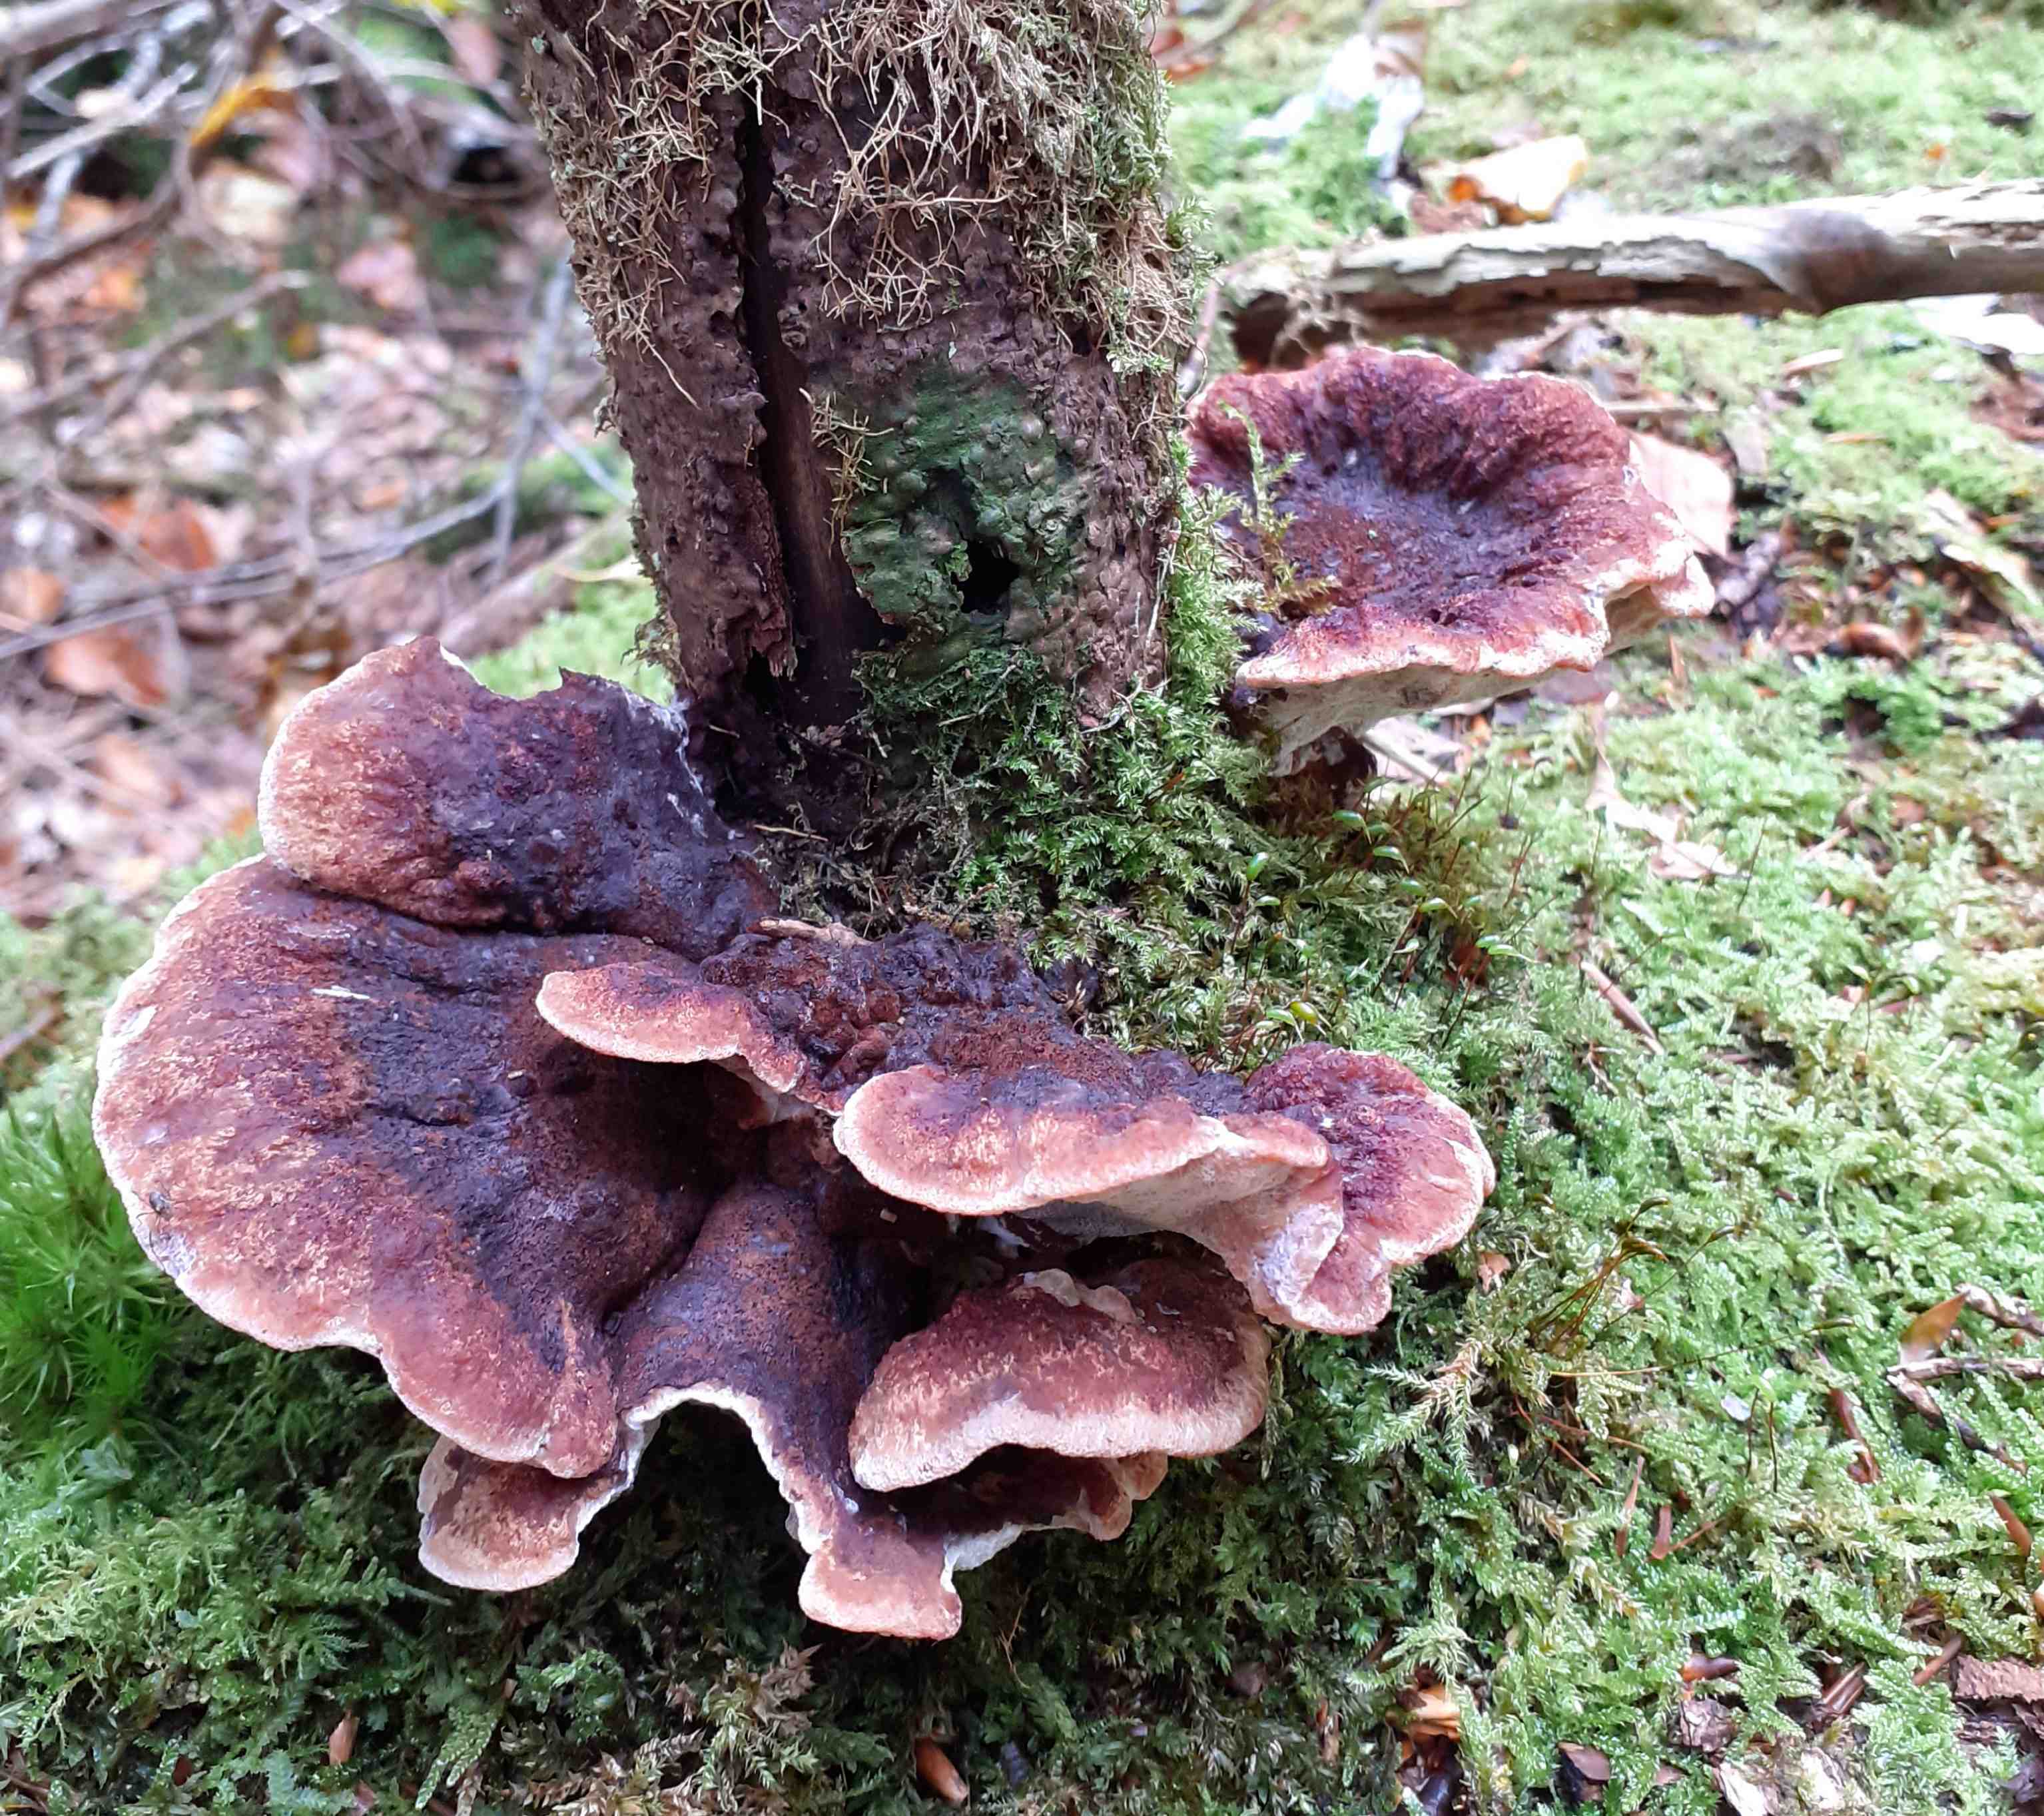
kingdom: Fungi
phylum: Basidiomycota
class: Agaricomycetes
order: Polyporales
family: Ischnodermataceae
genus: Ischnoderma
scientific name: Ischnoderma benzoinum
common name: gran-tjæreporesvamp
